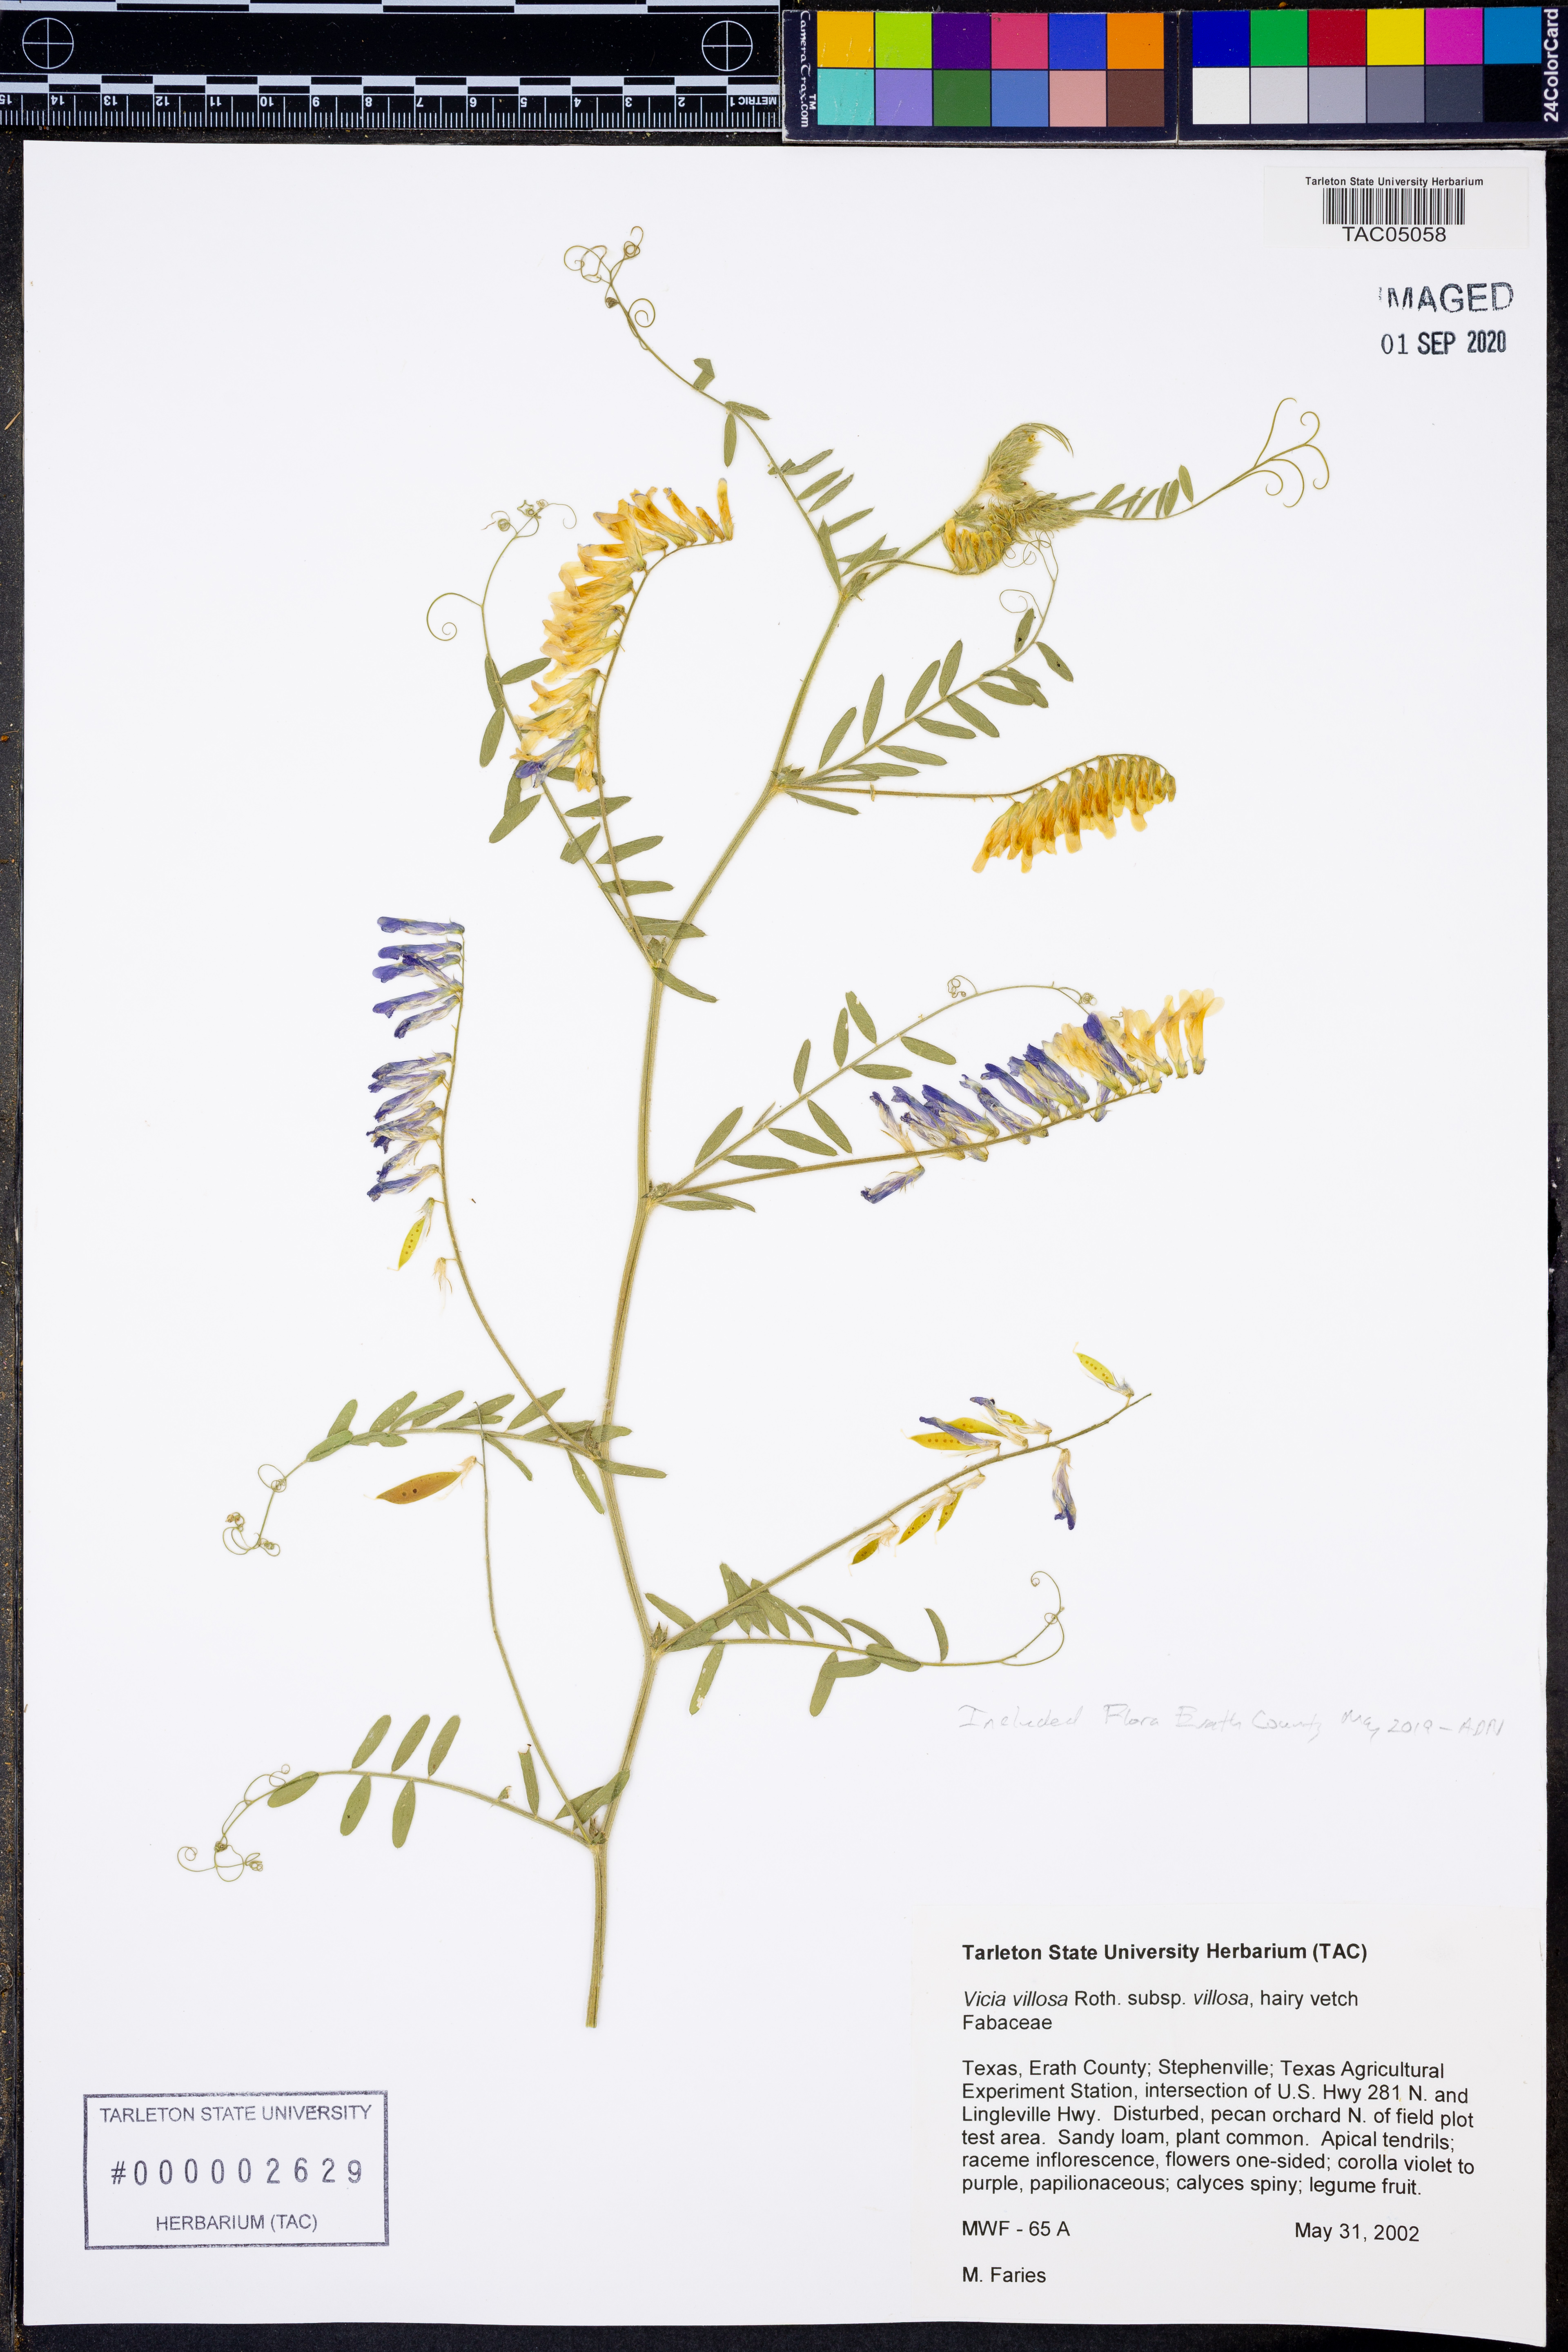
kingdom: Plantae
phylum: Tracheophyta
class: Magnoliopsida
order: Fabales
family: Fabaceae
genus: Vicia
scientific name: Vicia villosa
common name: Fodder vetch
